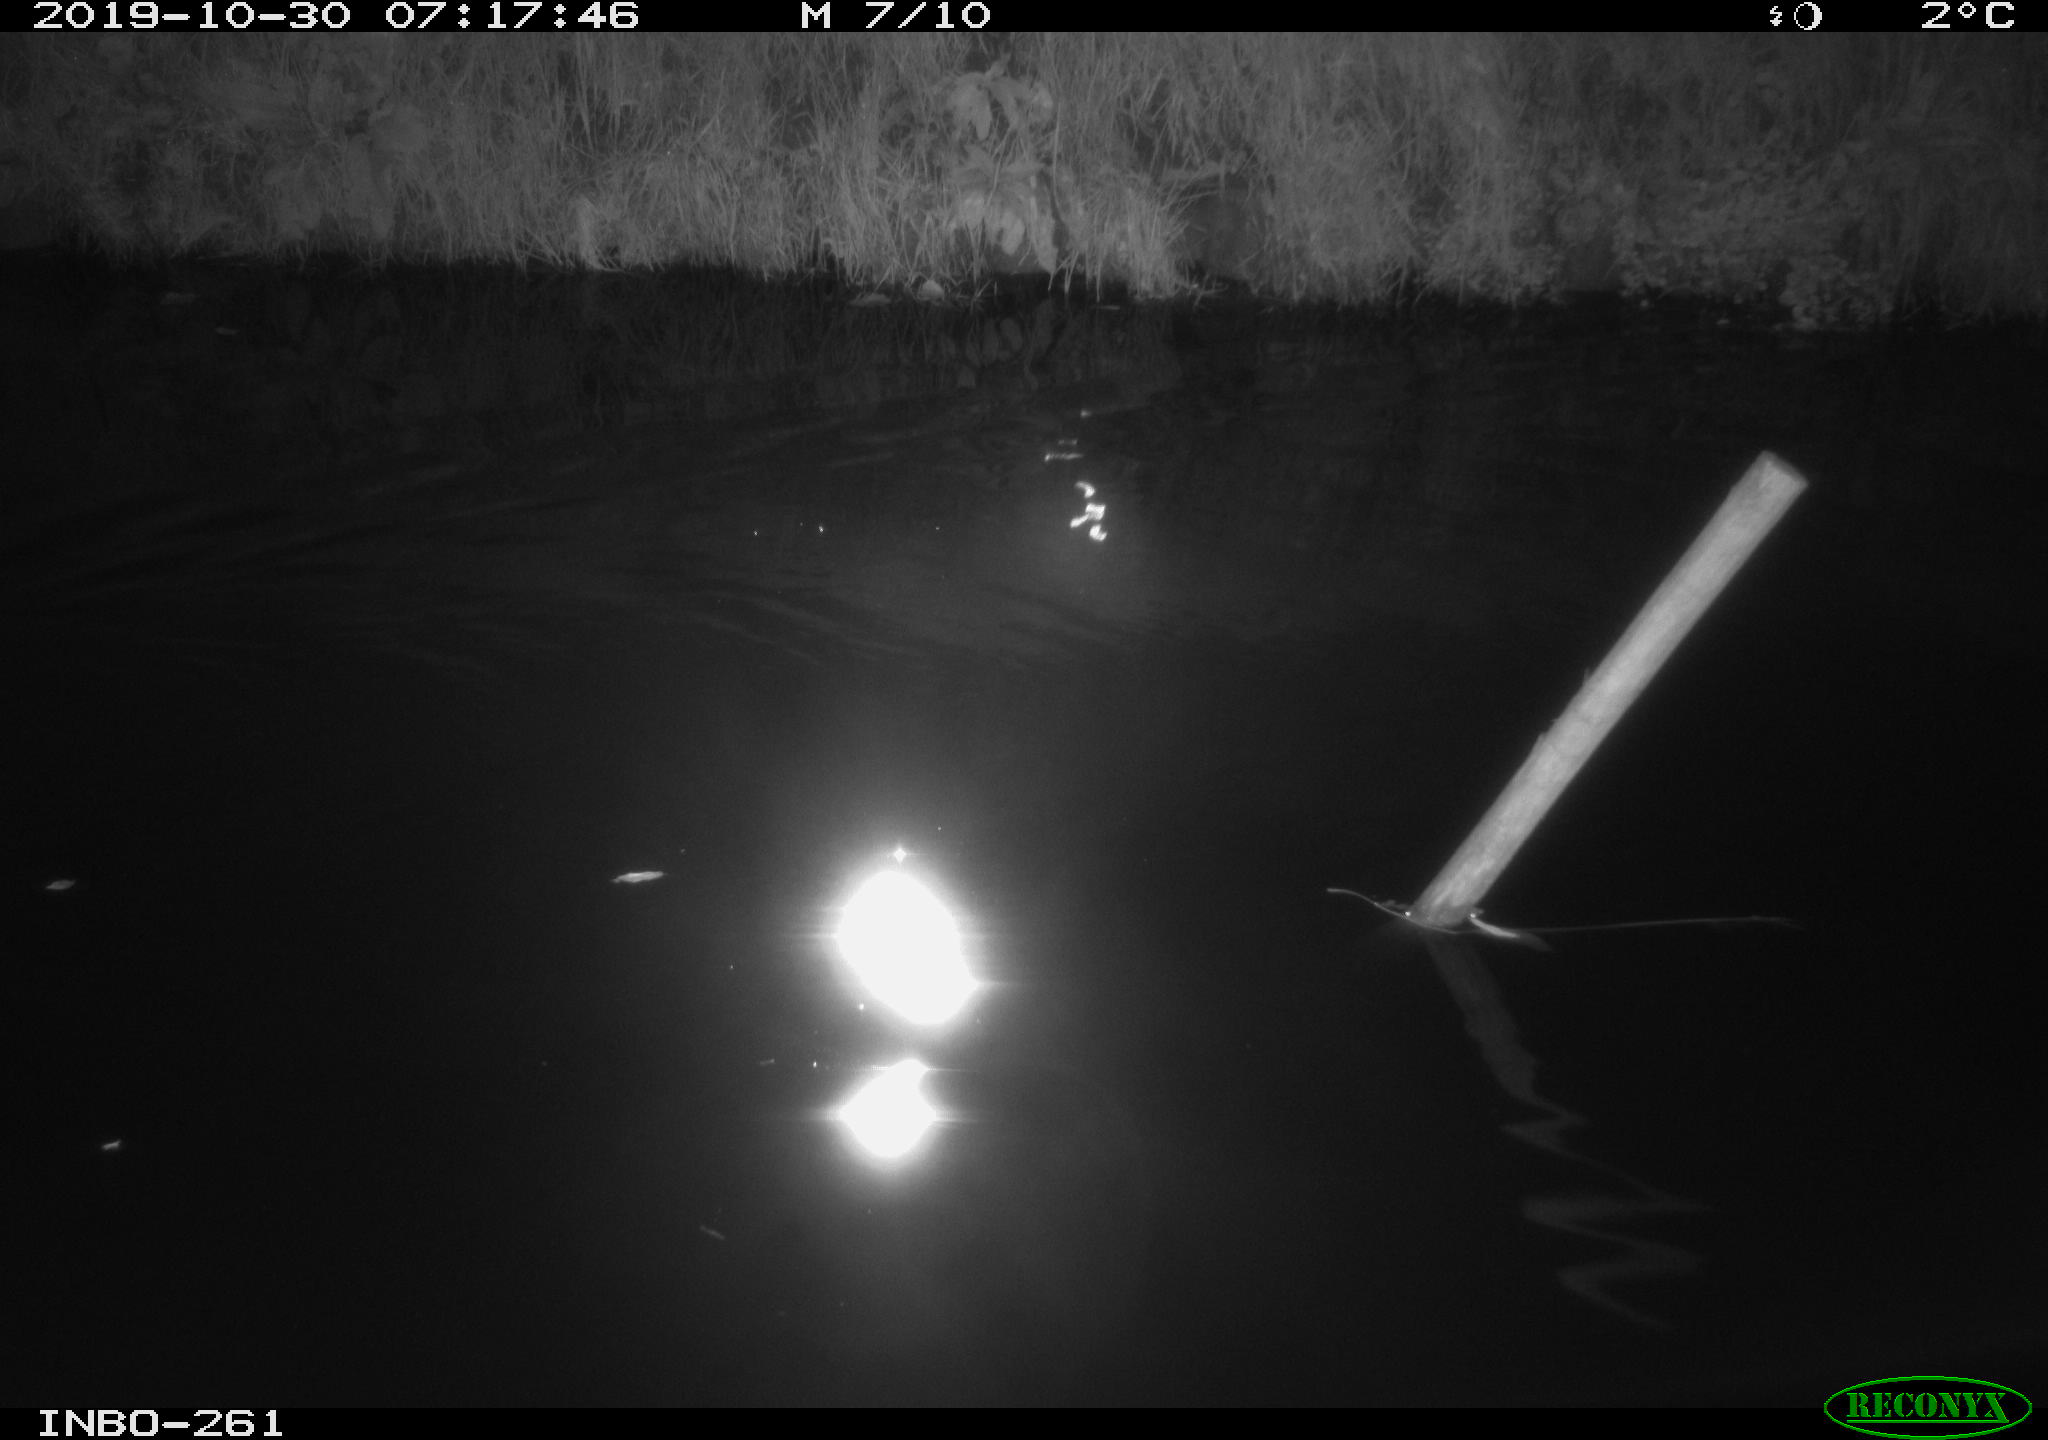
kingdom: Animalia
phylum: Chordata
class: Aves
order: Anseriformes
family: Anatidae
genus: Anas
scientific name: Anas platyrhynchos
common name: Mallard
